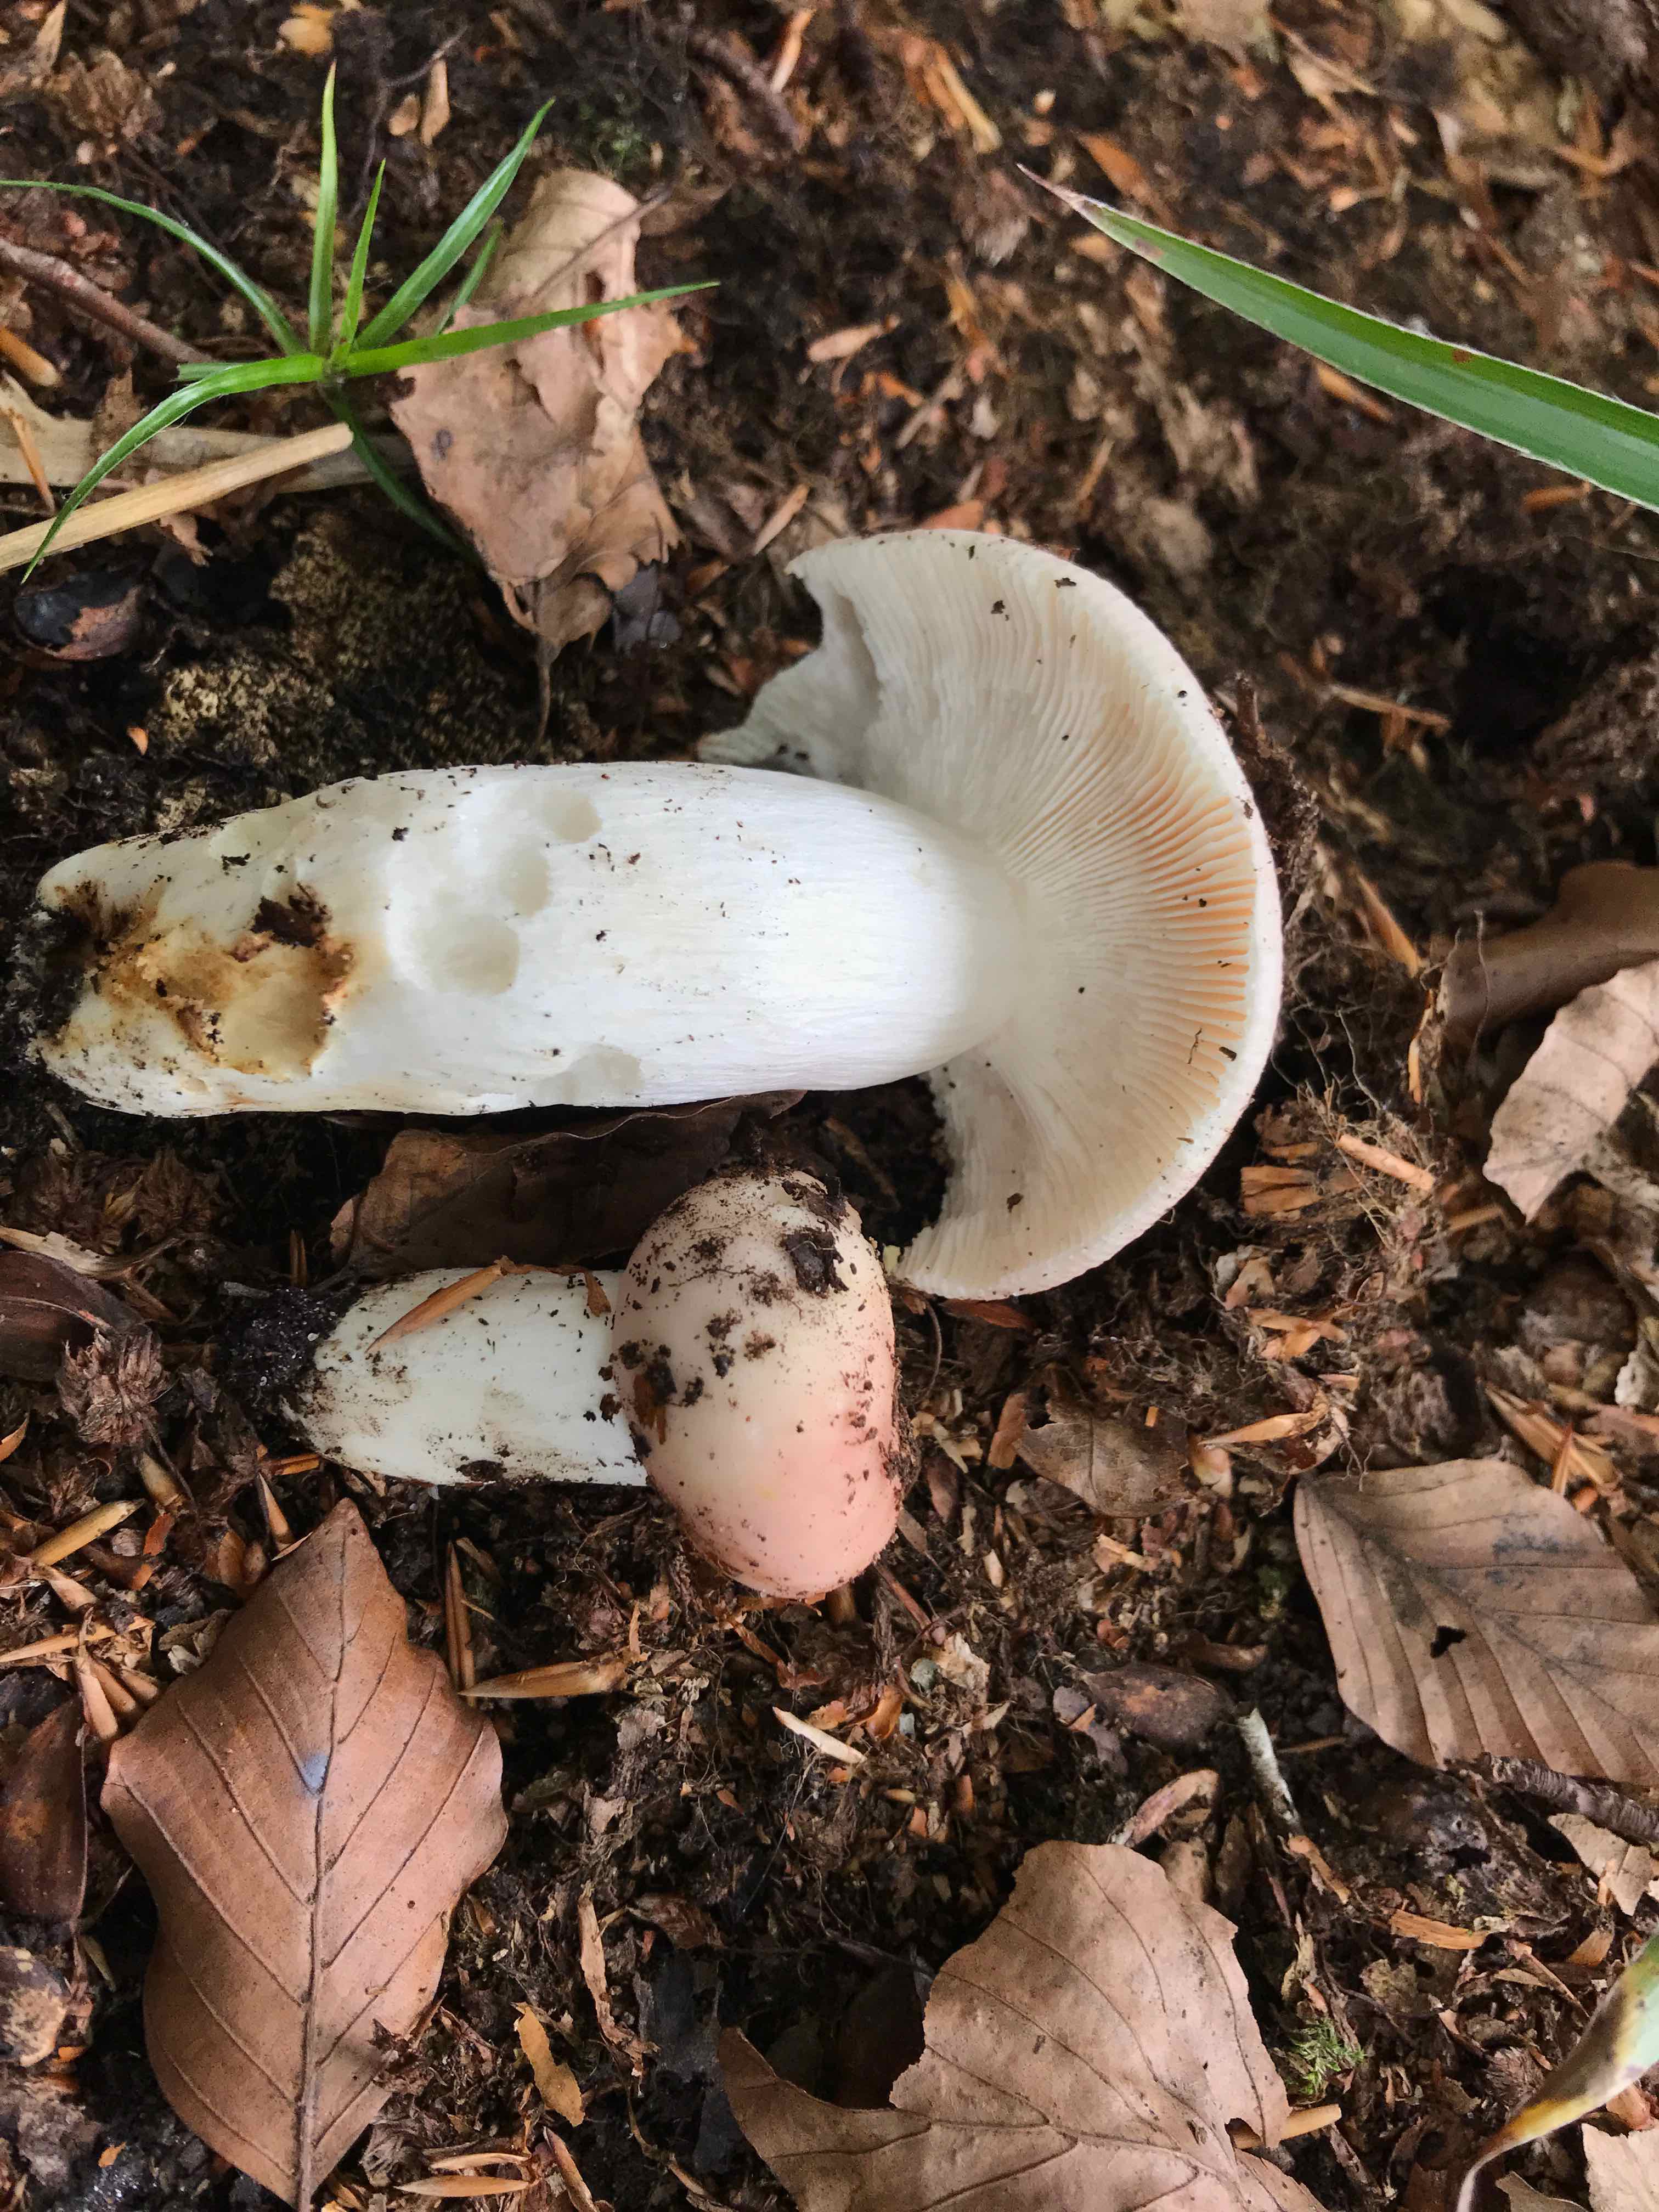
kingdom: Fungi
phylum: Basidiomycota
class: Agaricomycetes
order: Russulales
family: Russulaceae
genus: Russula
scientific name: Russula vesca
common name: spiselig skørhat
